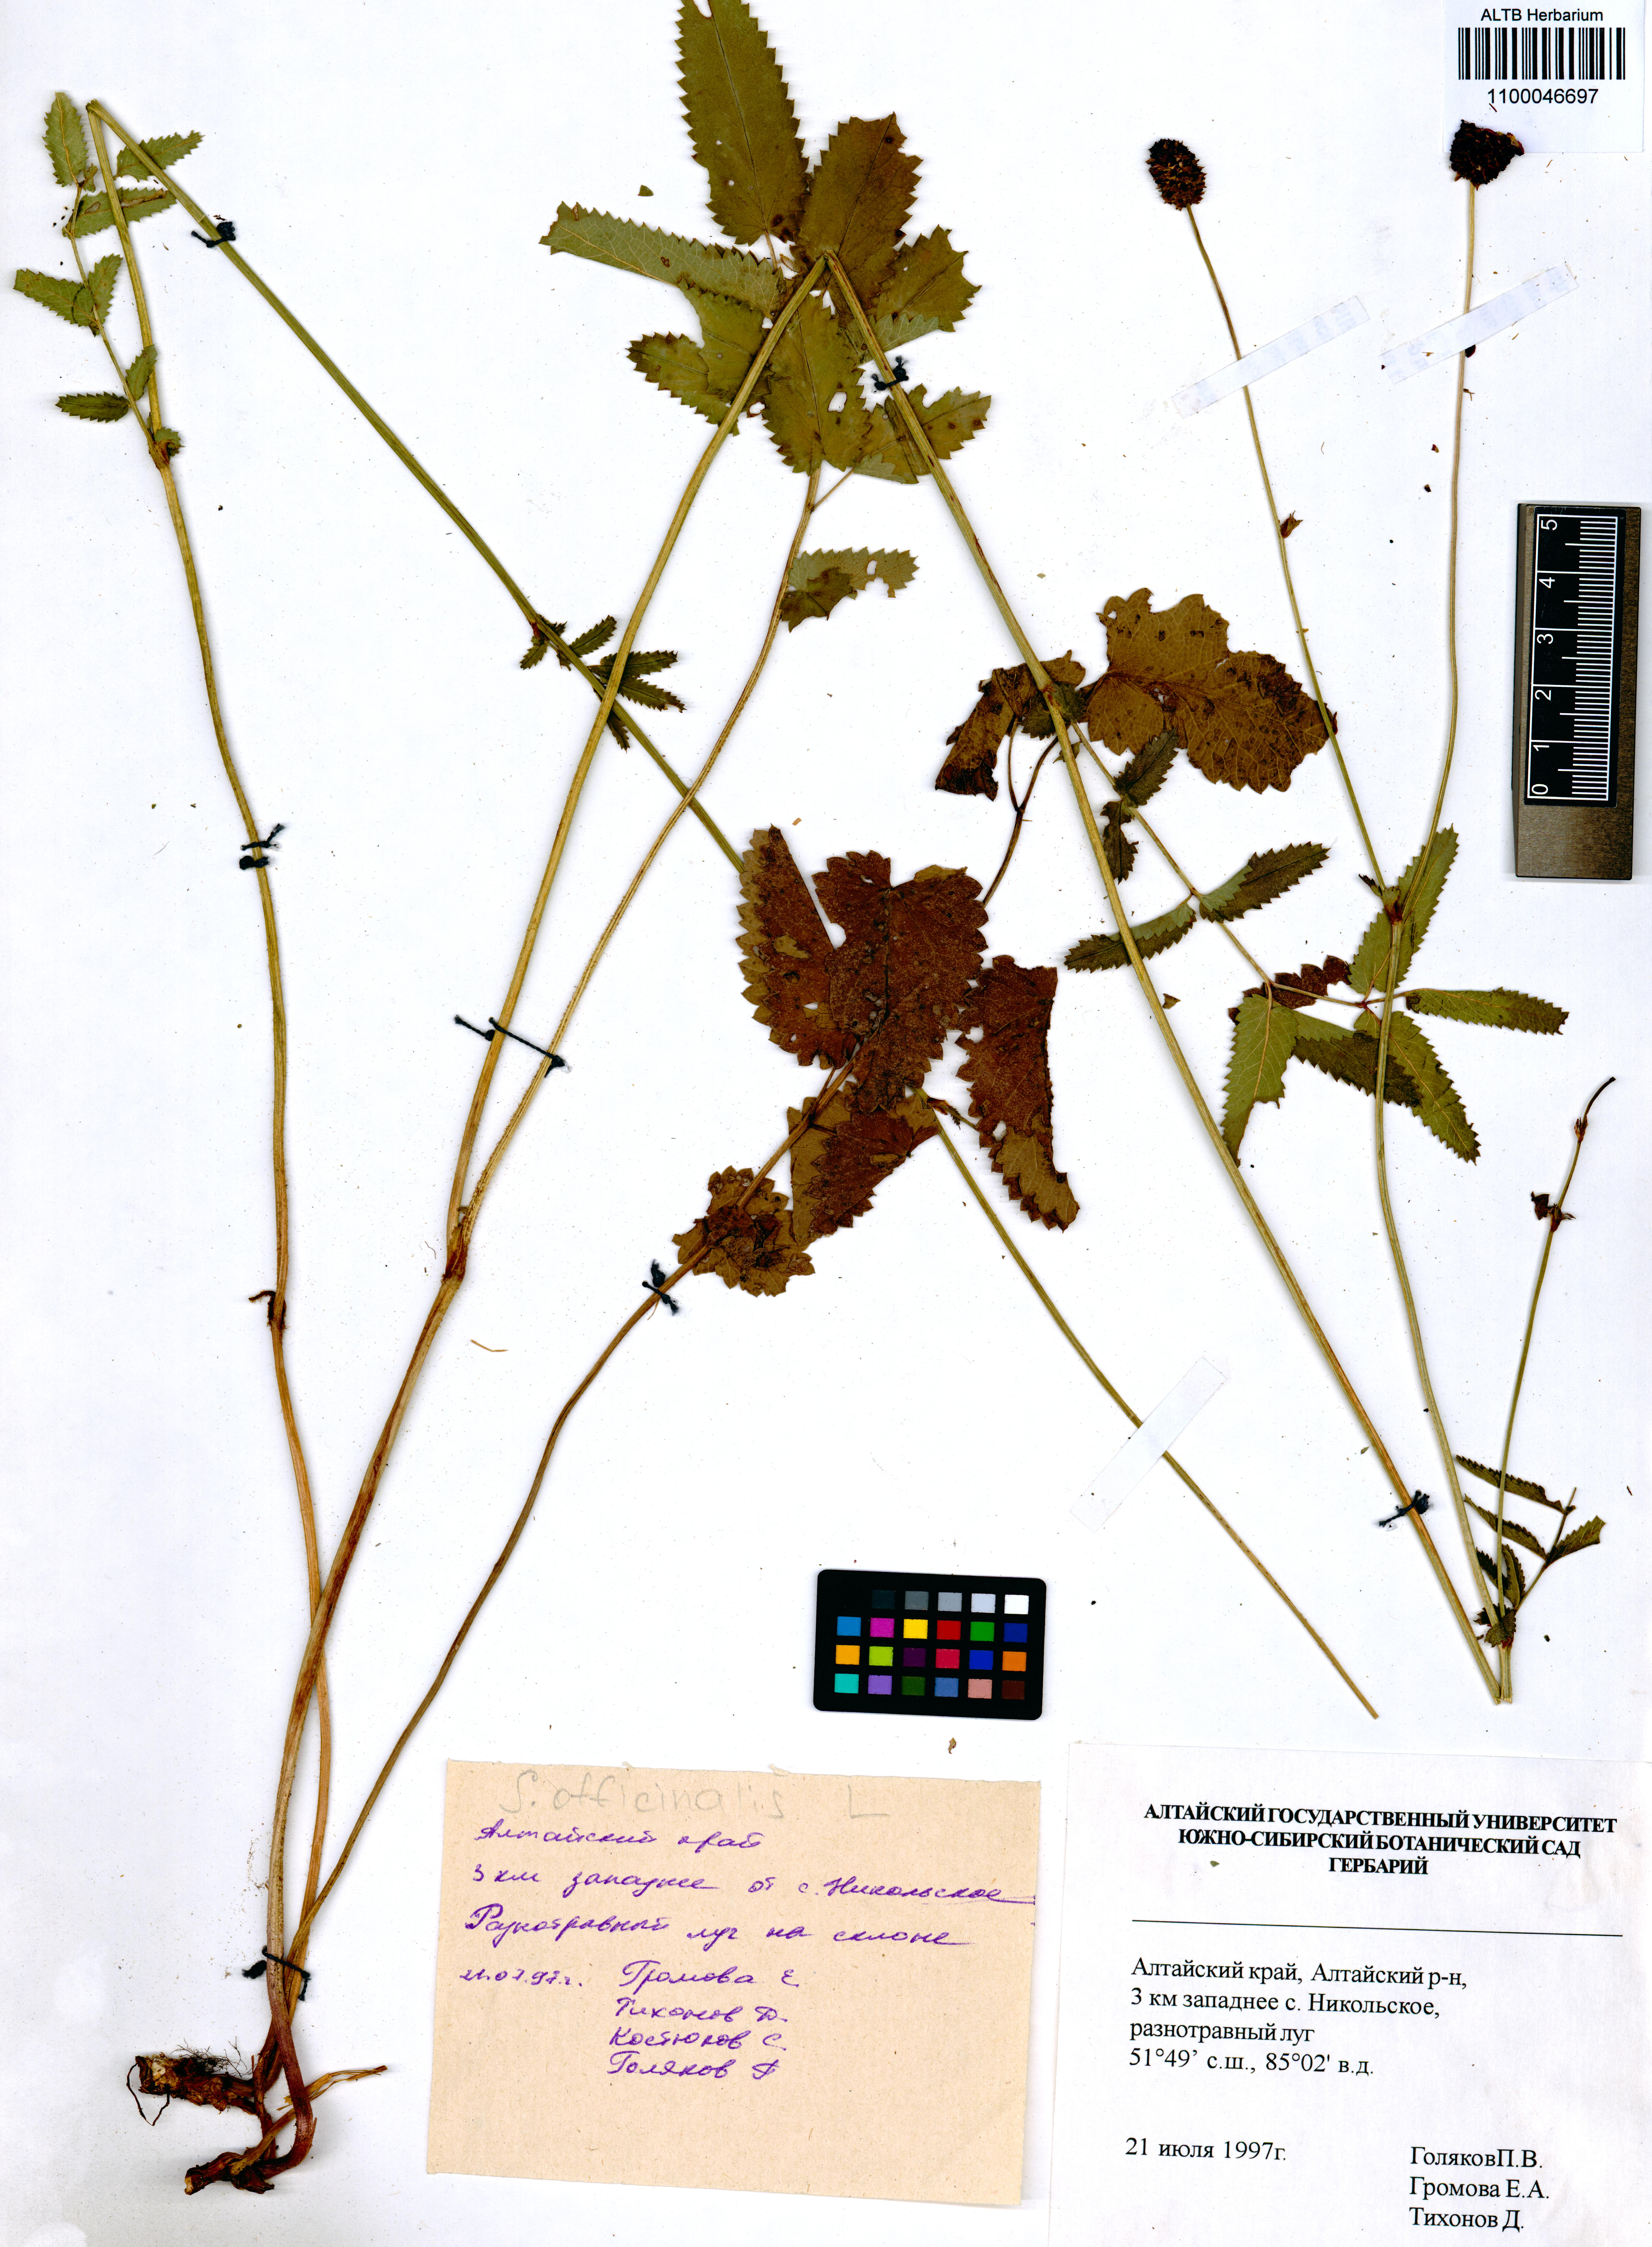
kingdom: Plantae
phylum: Tracheophyta
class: Magnoliopsida
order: Rosales
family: Rosaceae
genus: Sanguisorba
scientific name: Sanguisorba officinalis
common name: Great burnet
